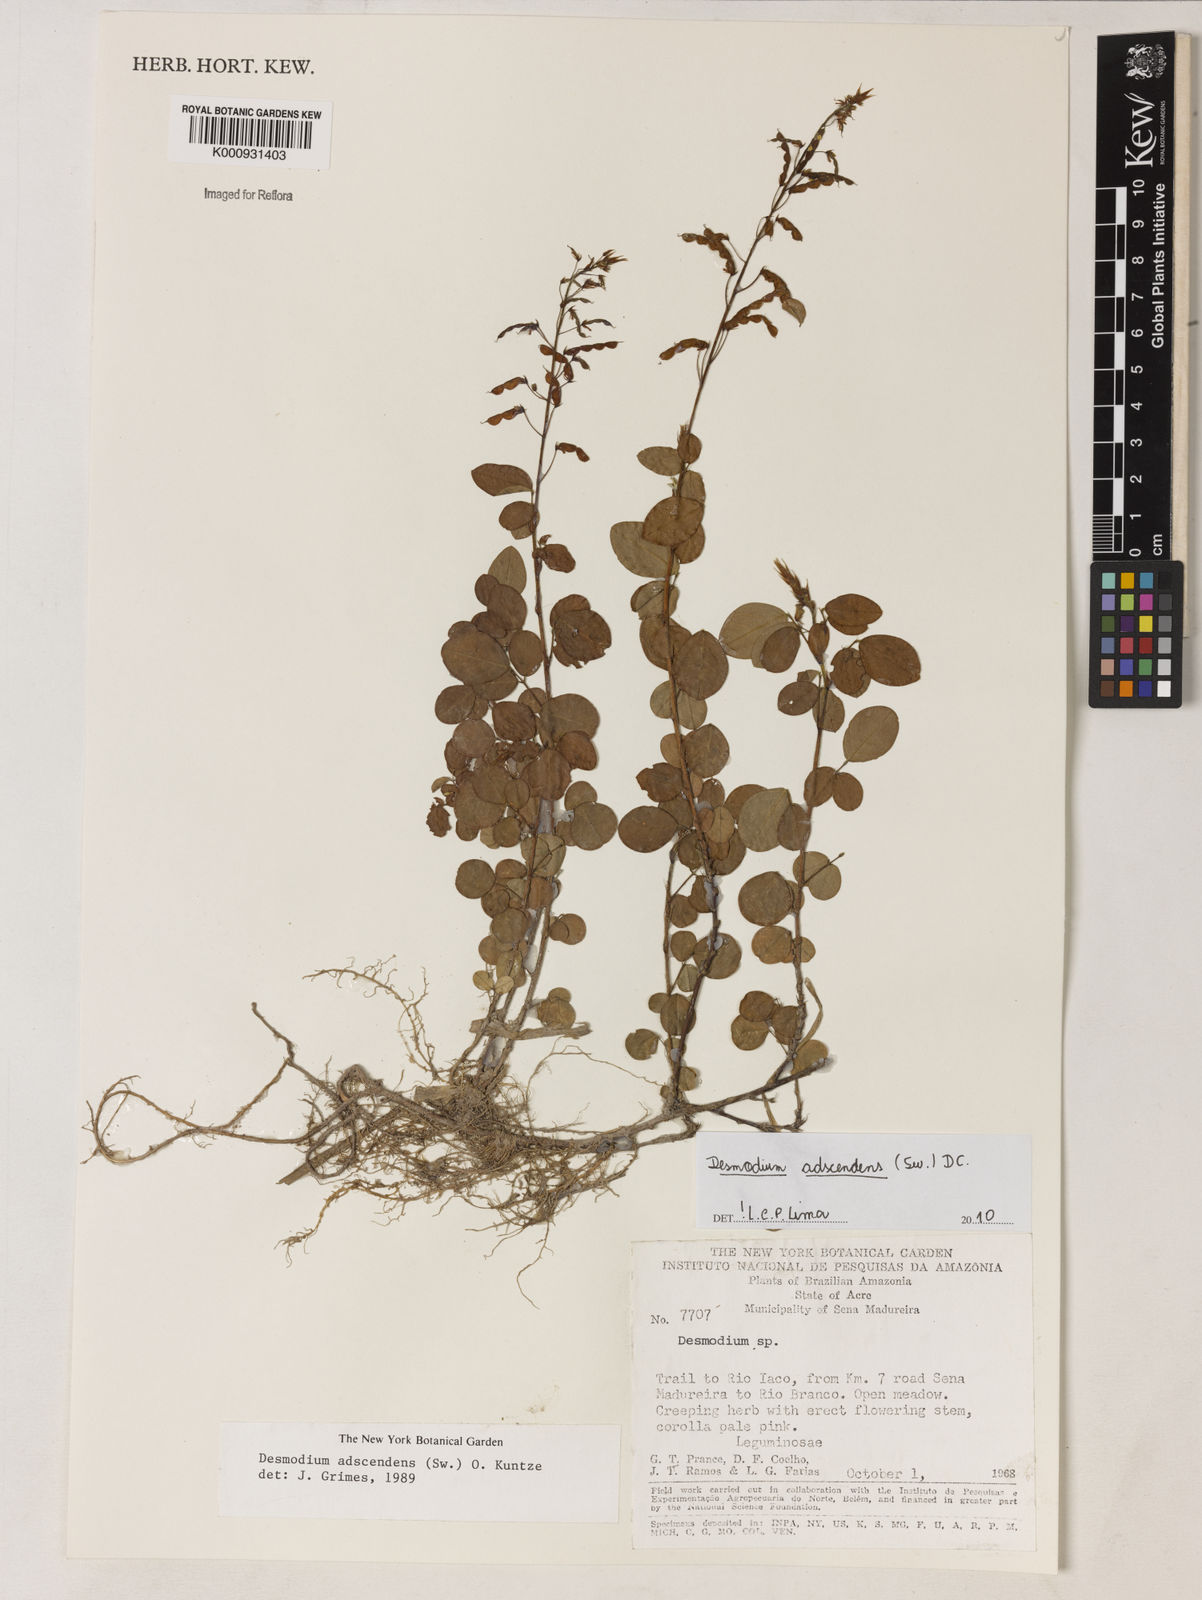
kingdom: Plantae
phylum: Tracheophyta
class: Magnoliopsida
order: Fabales
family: Fabaceae
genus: Grona
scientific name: Grona adscendens
